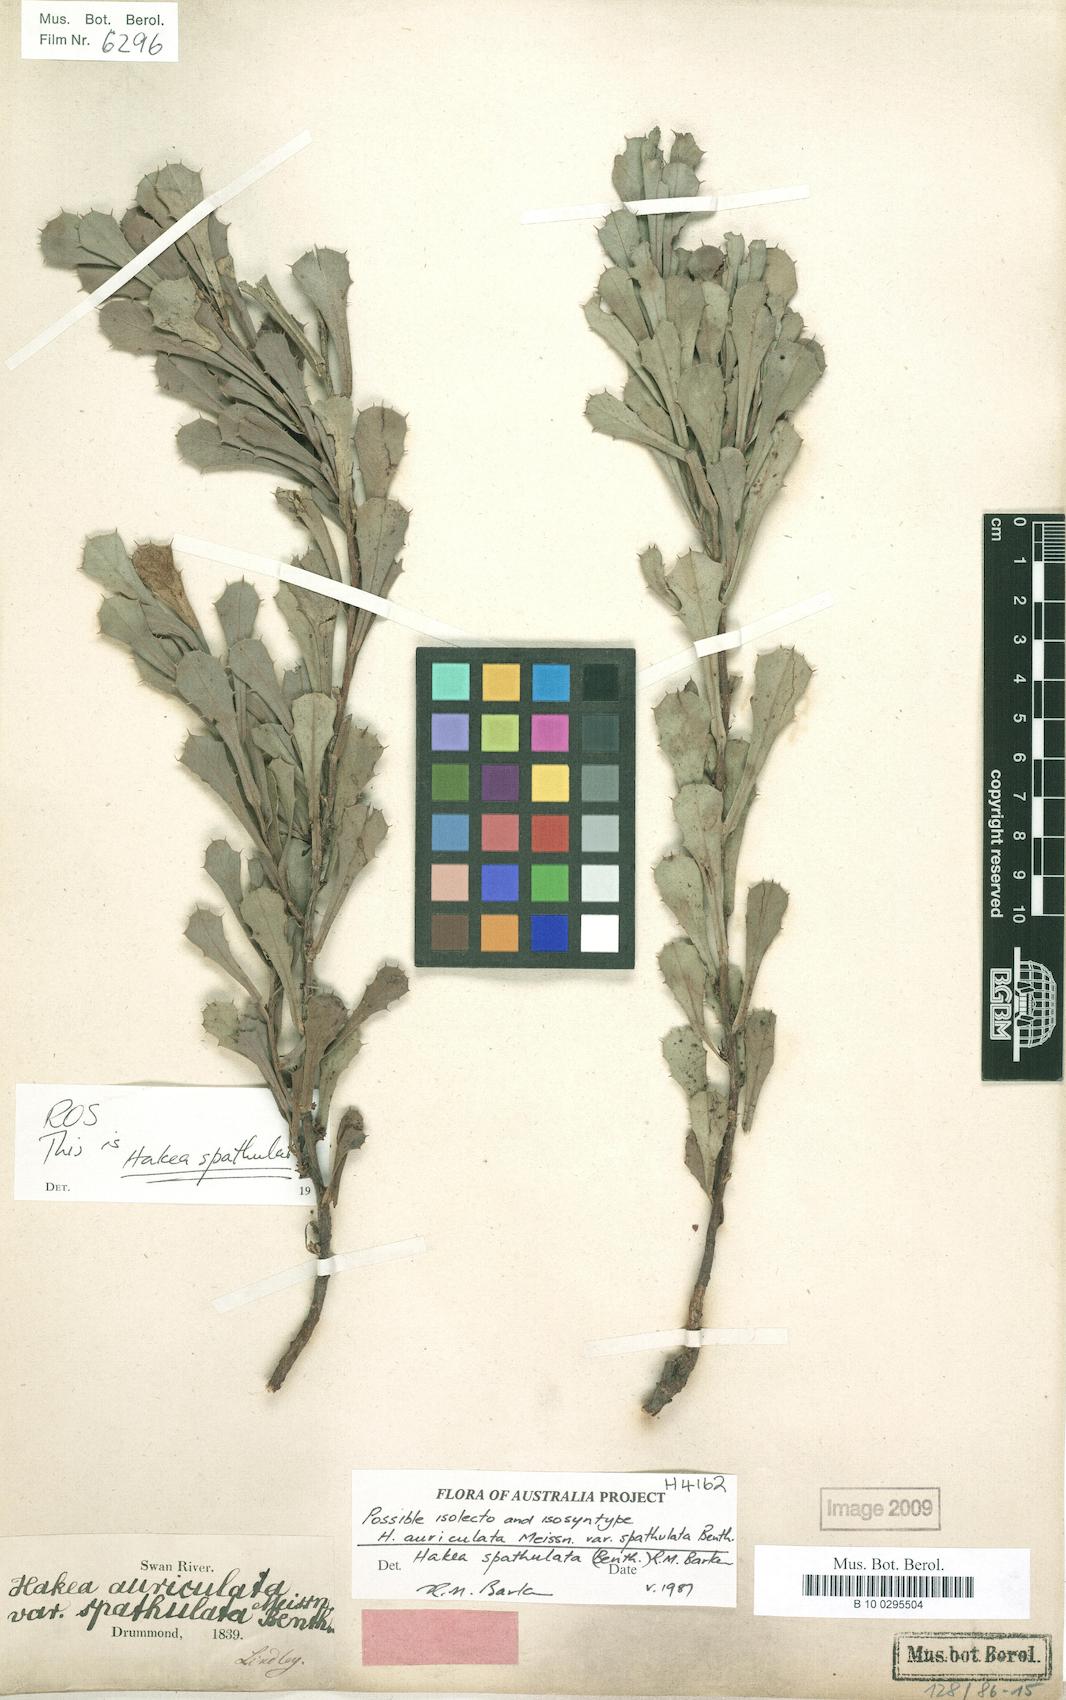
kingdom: Plantae
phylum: Tracheophyta
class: Magnoliopsida
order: Proteales
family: Proteaceae
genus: Hakea
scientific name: Hakea neospathulata
